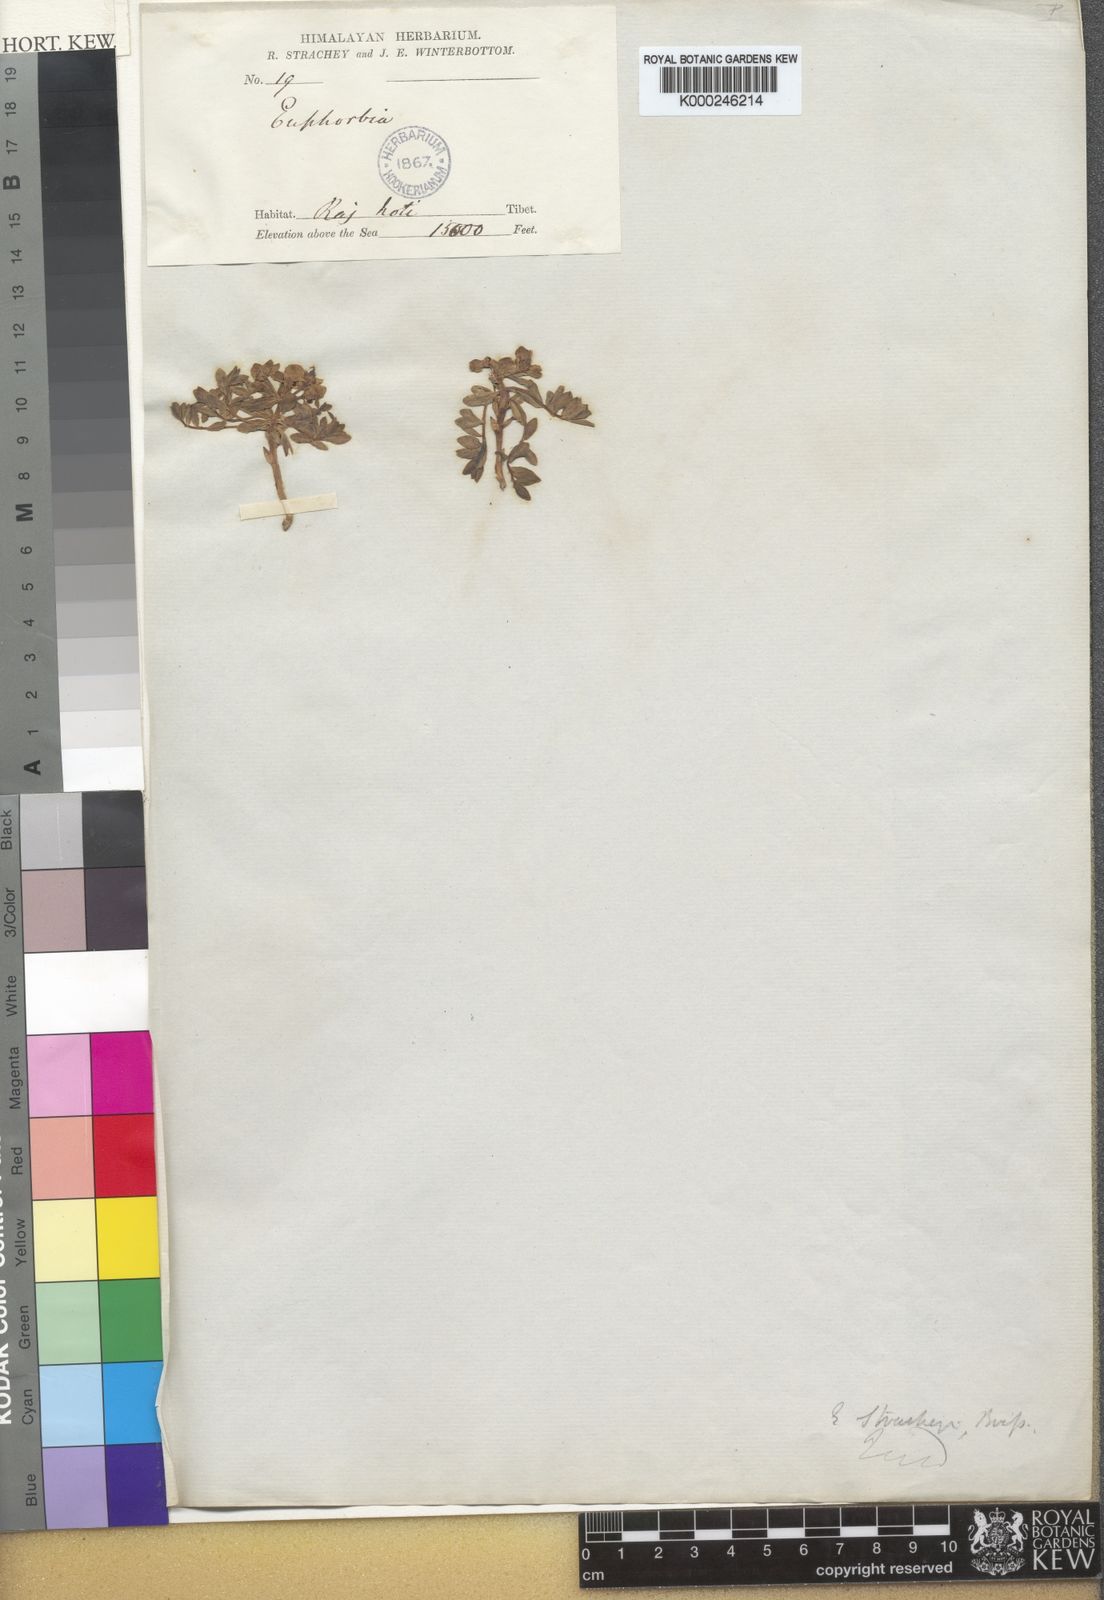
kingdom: Plantae
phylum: Tracheophyta
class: Magnoliopsida
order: Malpighiales
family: Euphorbiaceae
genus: Euphorbia
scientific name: Euphorbia stracheyi
